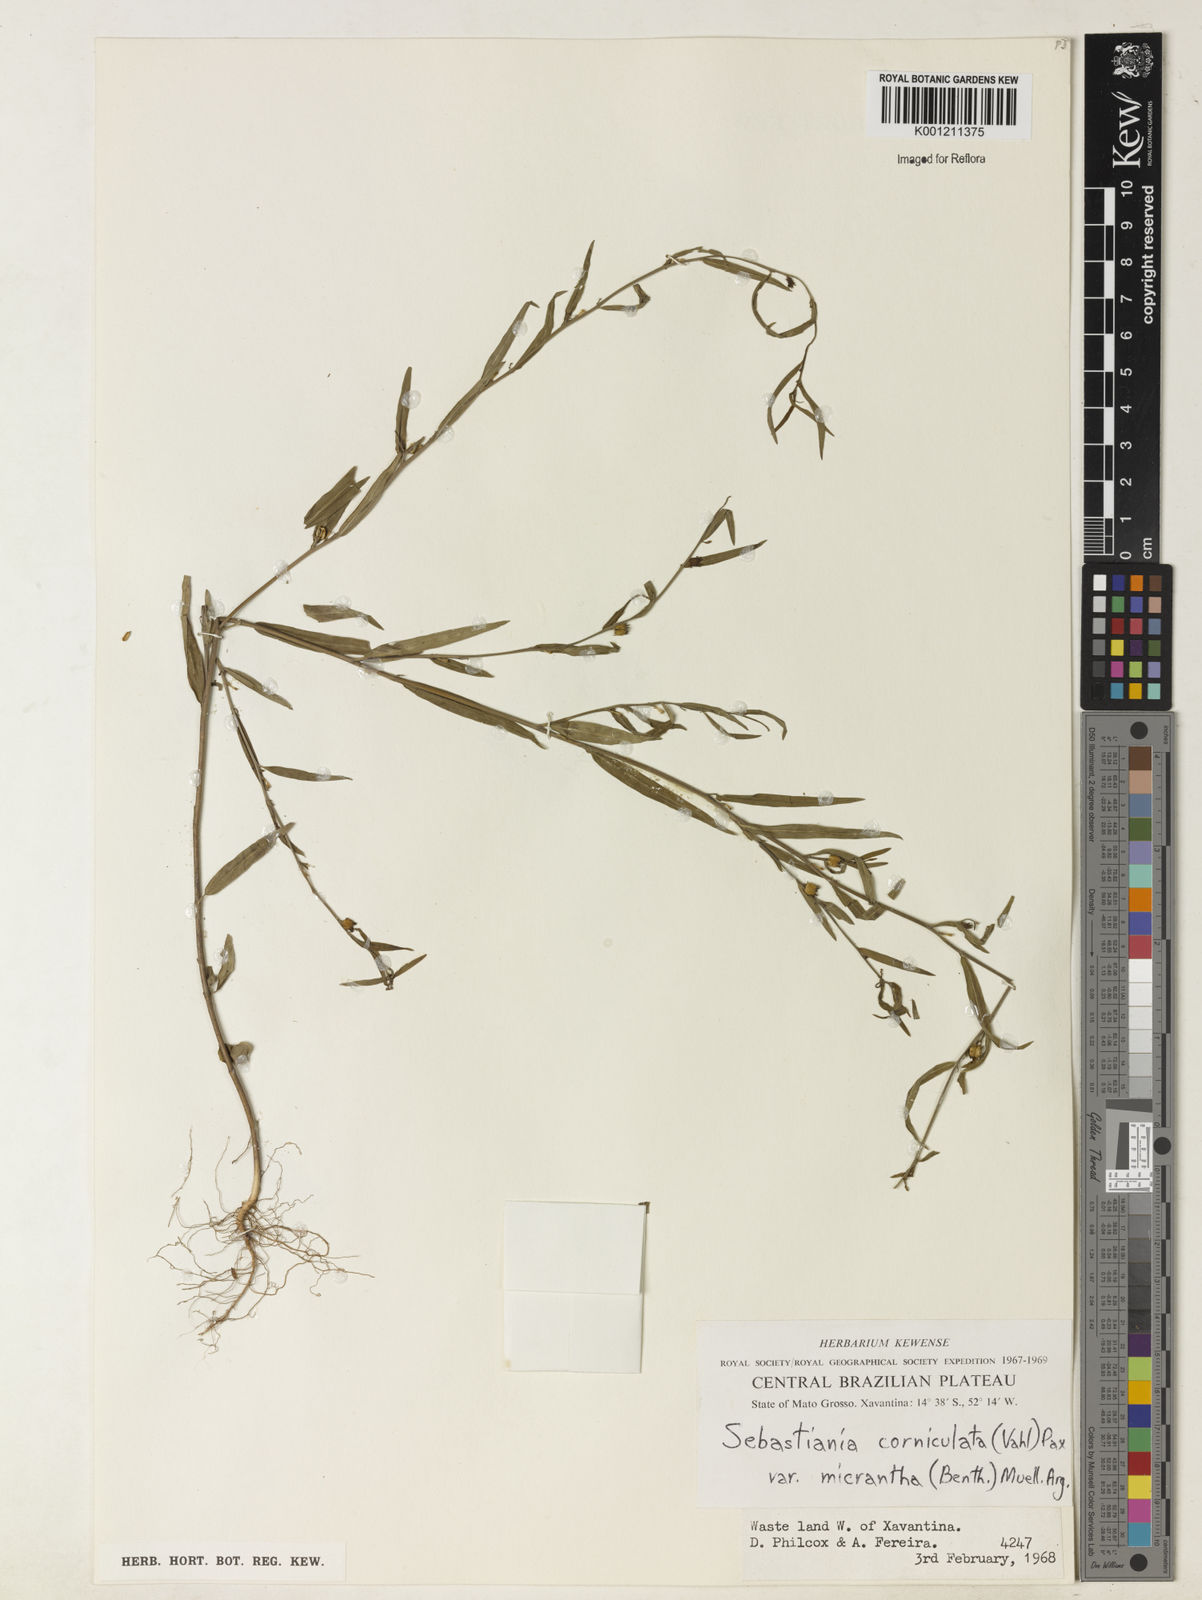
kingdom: Plantae
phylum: Tracheophyta
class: Magnoliopsida
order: Malpighiales
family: Euphorbiaceae
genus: Microstachys
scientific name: Microstachys corniculata
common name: Hato tejas
